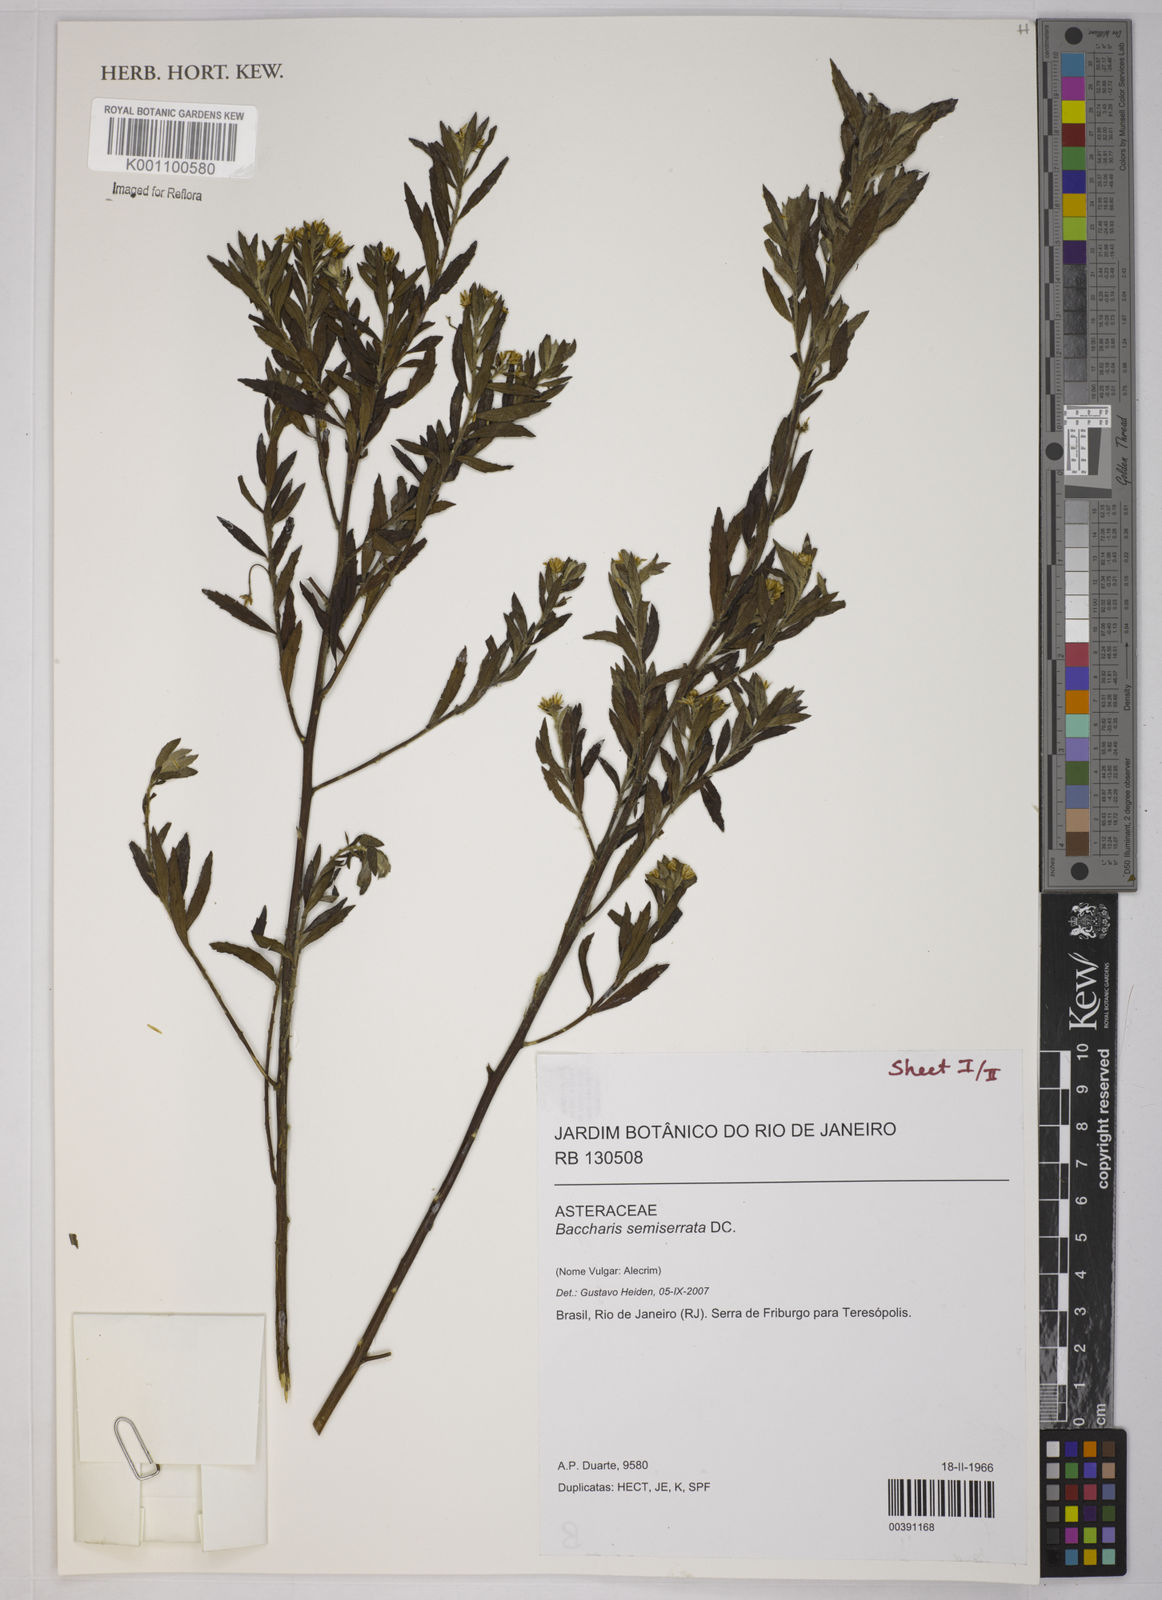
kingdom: Plantae
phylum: Tracheophyta
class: Magnoliopsida
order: Asterales
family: Asteraceae
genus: Baccharis
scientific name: Baccharis gnidiifolia
